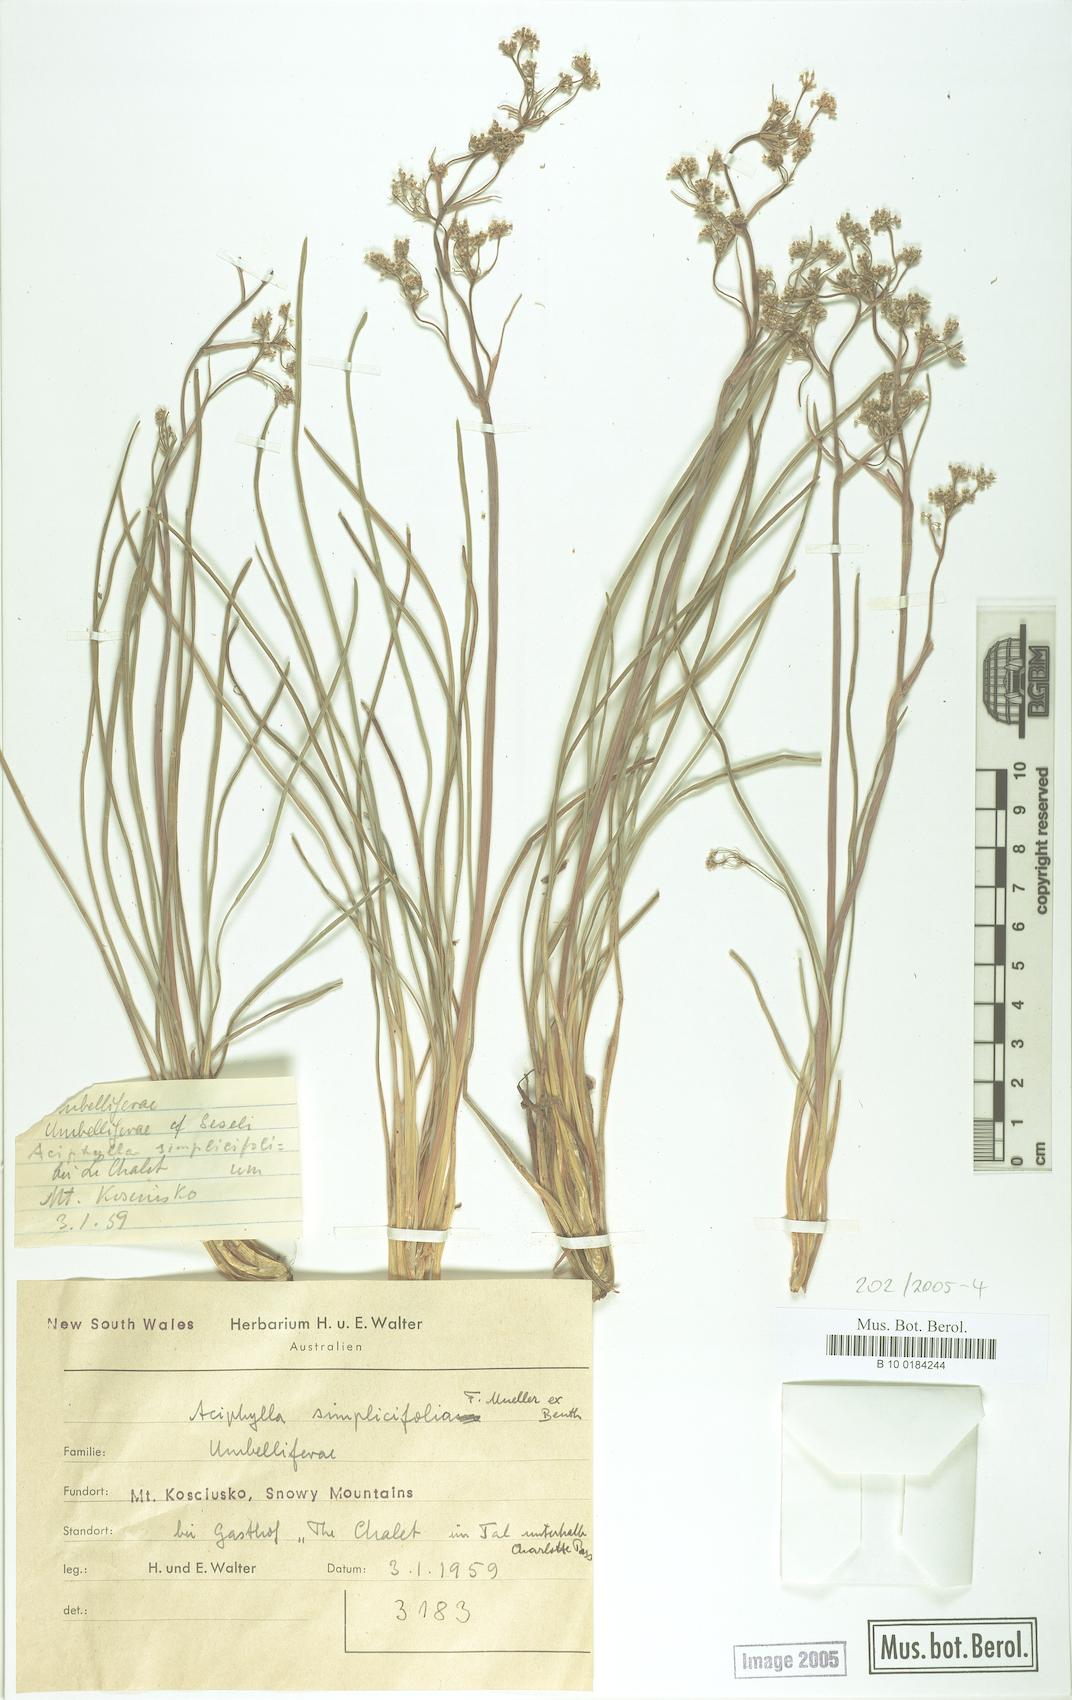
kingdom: Plantae
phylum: Tracheophyta
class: Magnoliopsida
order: Apiales
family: Apiaceae
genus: Aciphylla
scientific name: Aciphylla simplicifolia
